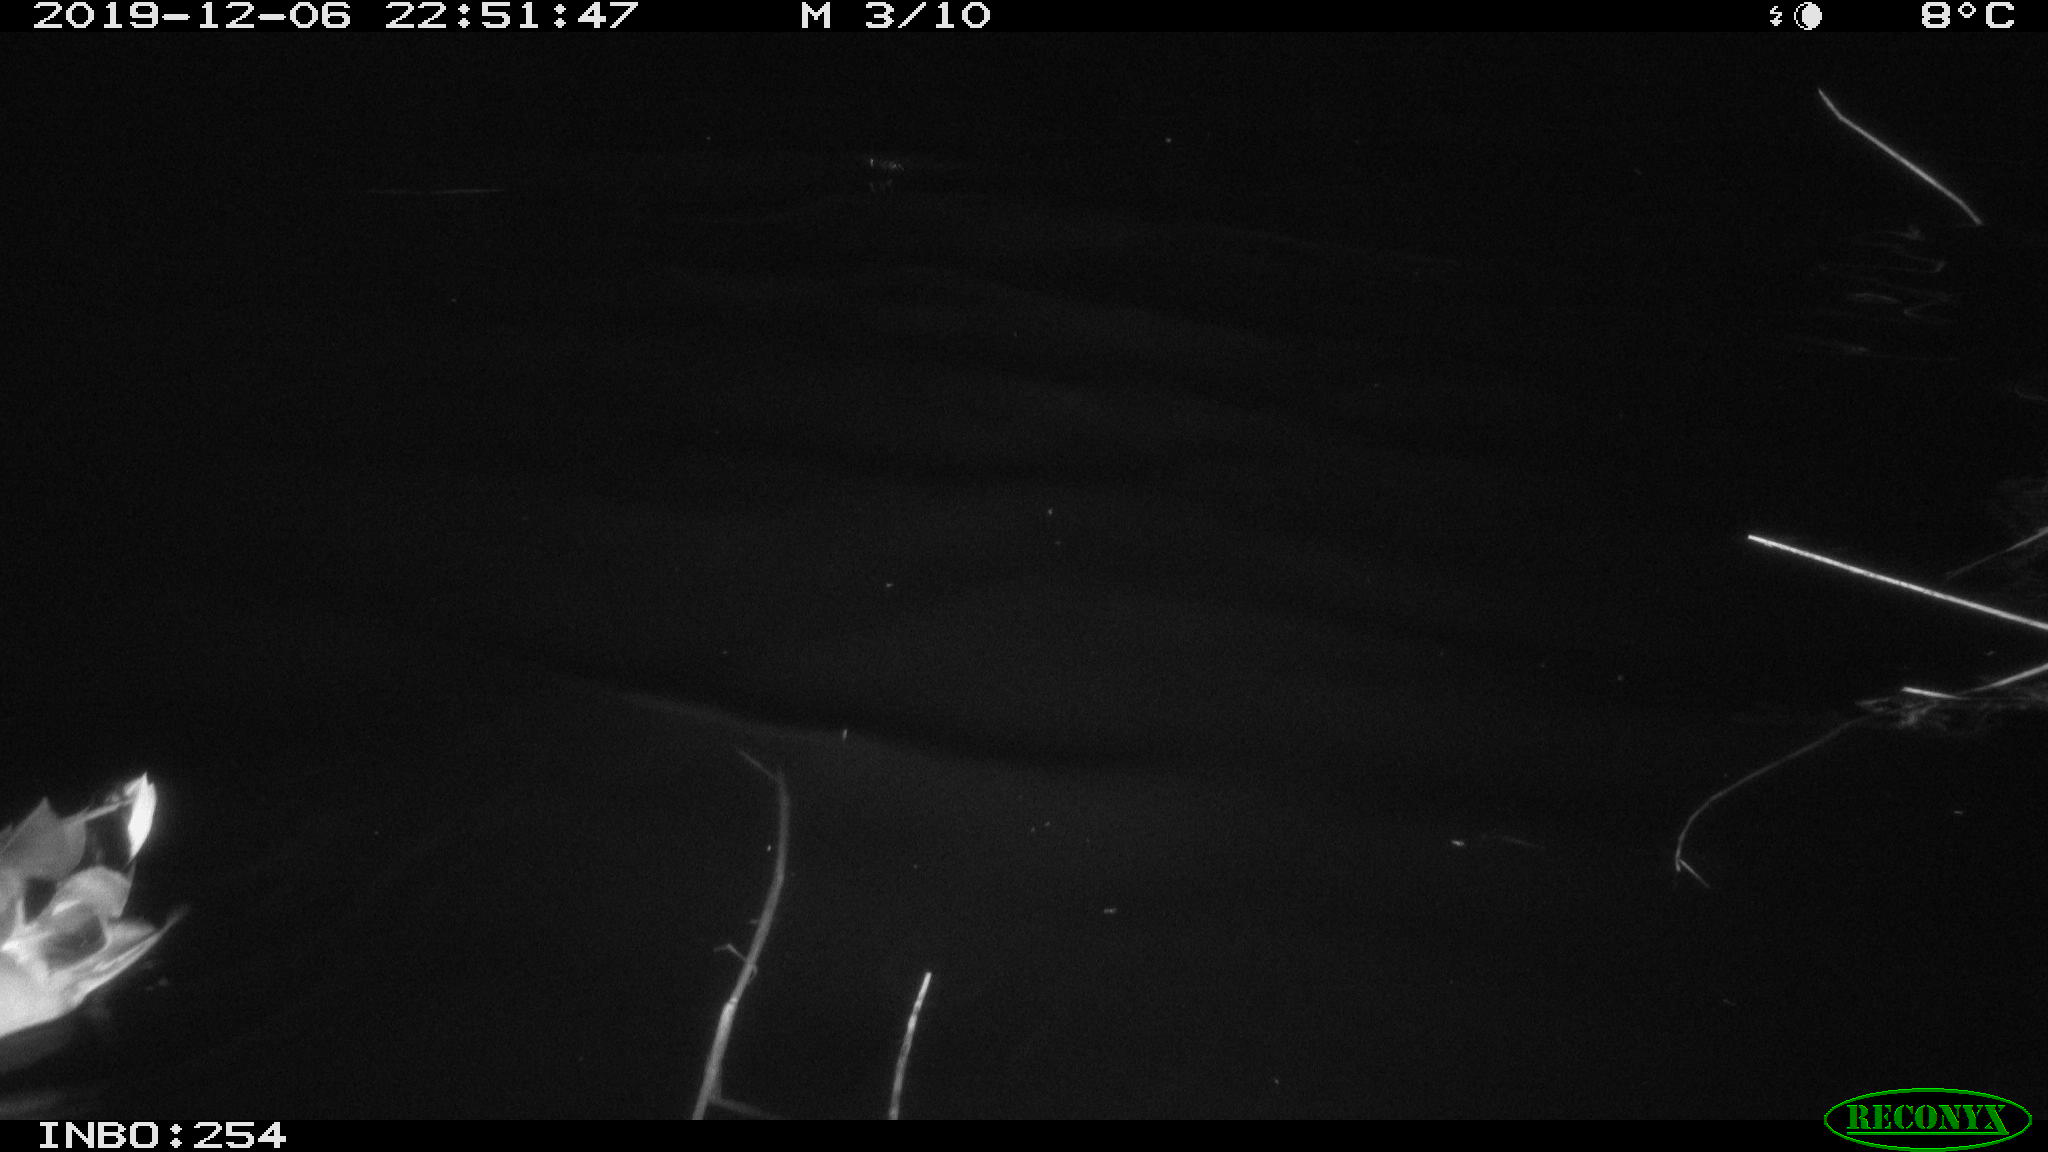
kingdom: Animalia
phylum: Chordata
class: Aves
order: Anseriformes
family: Anatidae
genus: Anas
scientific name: Anas platyrhynchos
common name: Mallard
